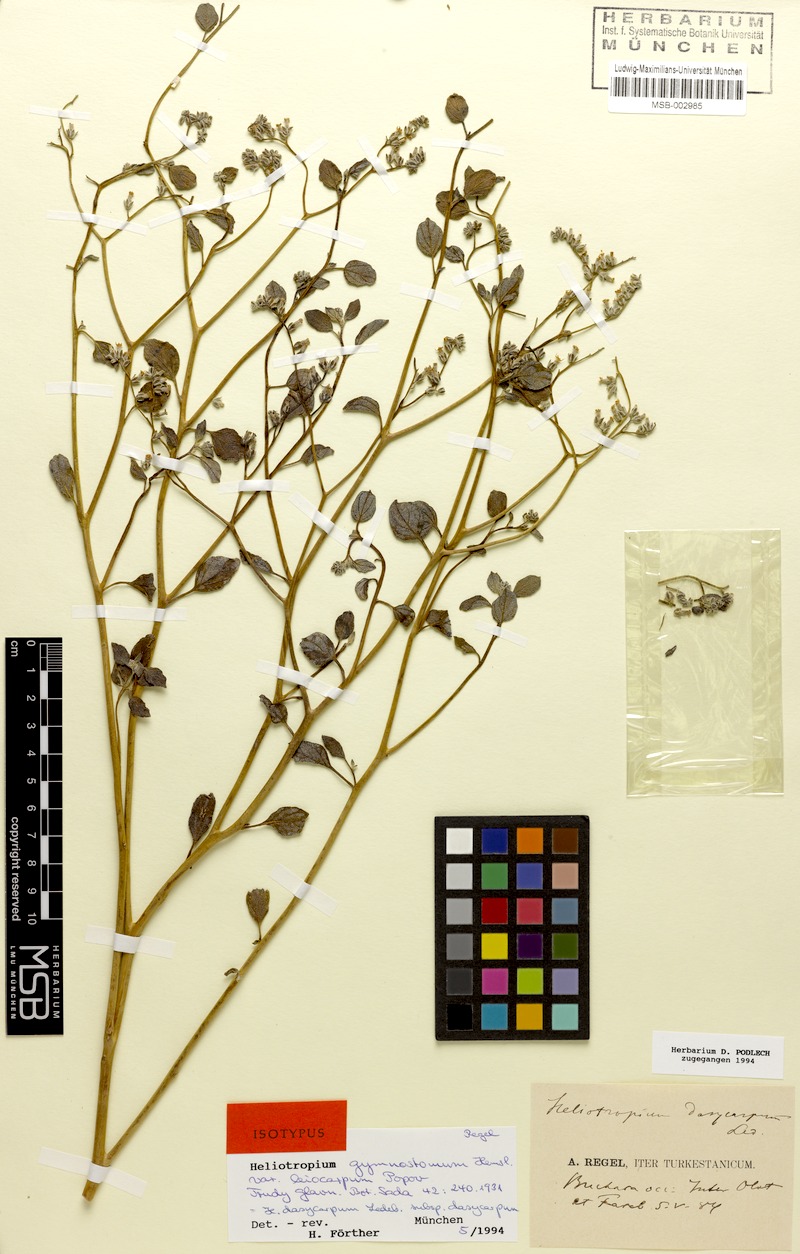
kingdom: Plantae
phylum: Tracheophyta
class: Magnoliopsida
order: Boraginales
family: Heliotropiaceae
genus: Heliotropium
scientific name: Heliotropium dasycarpum
